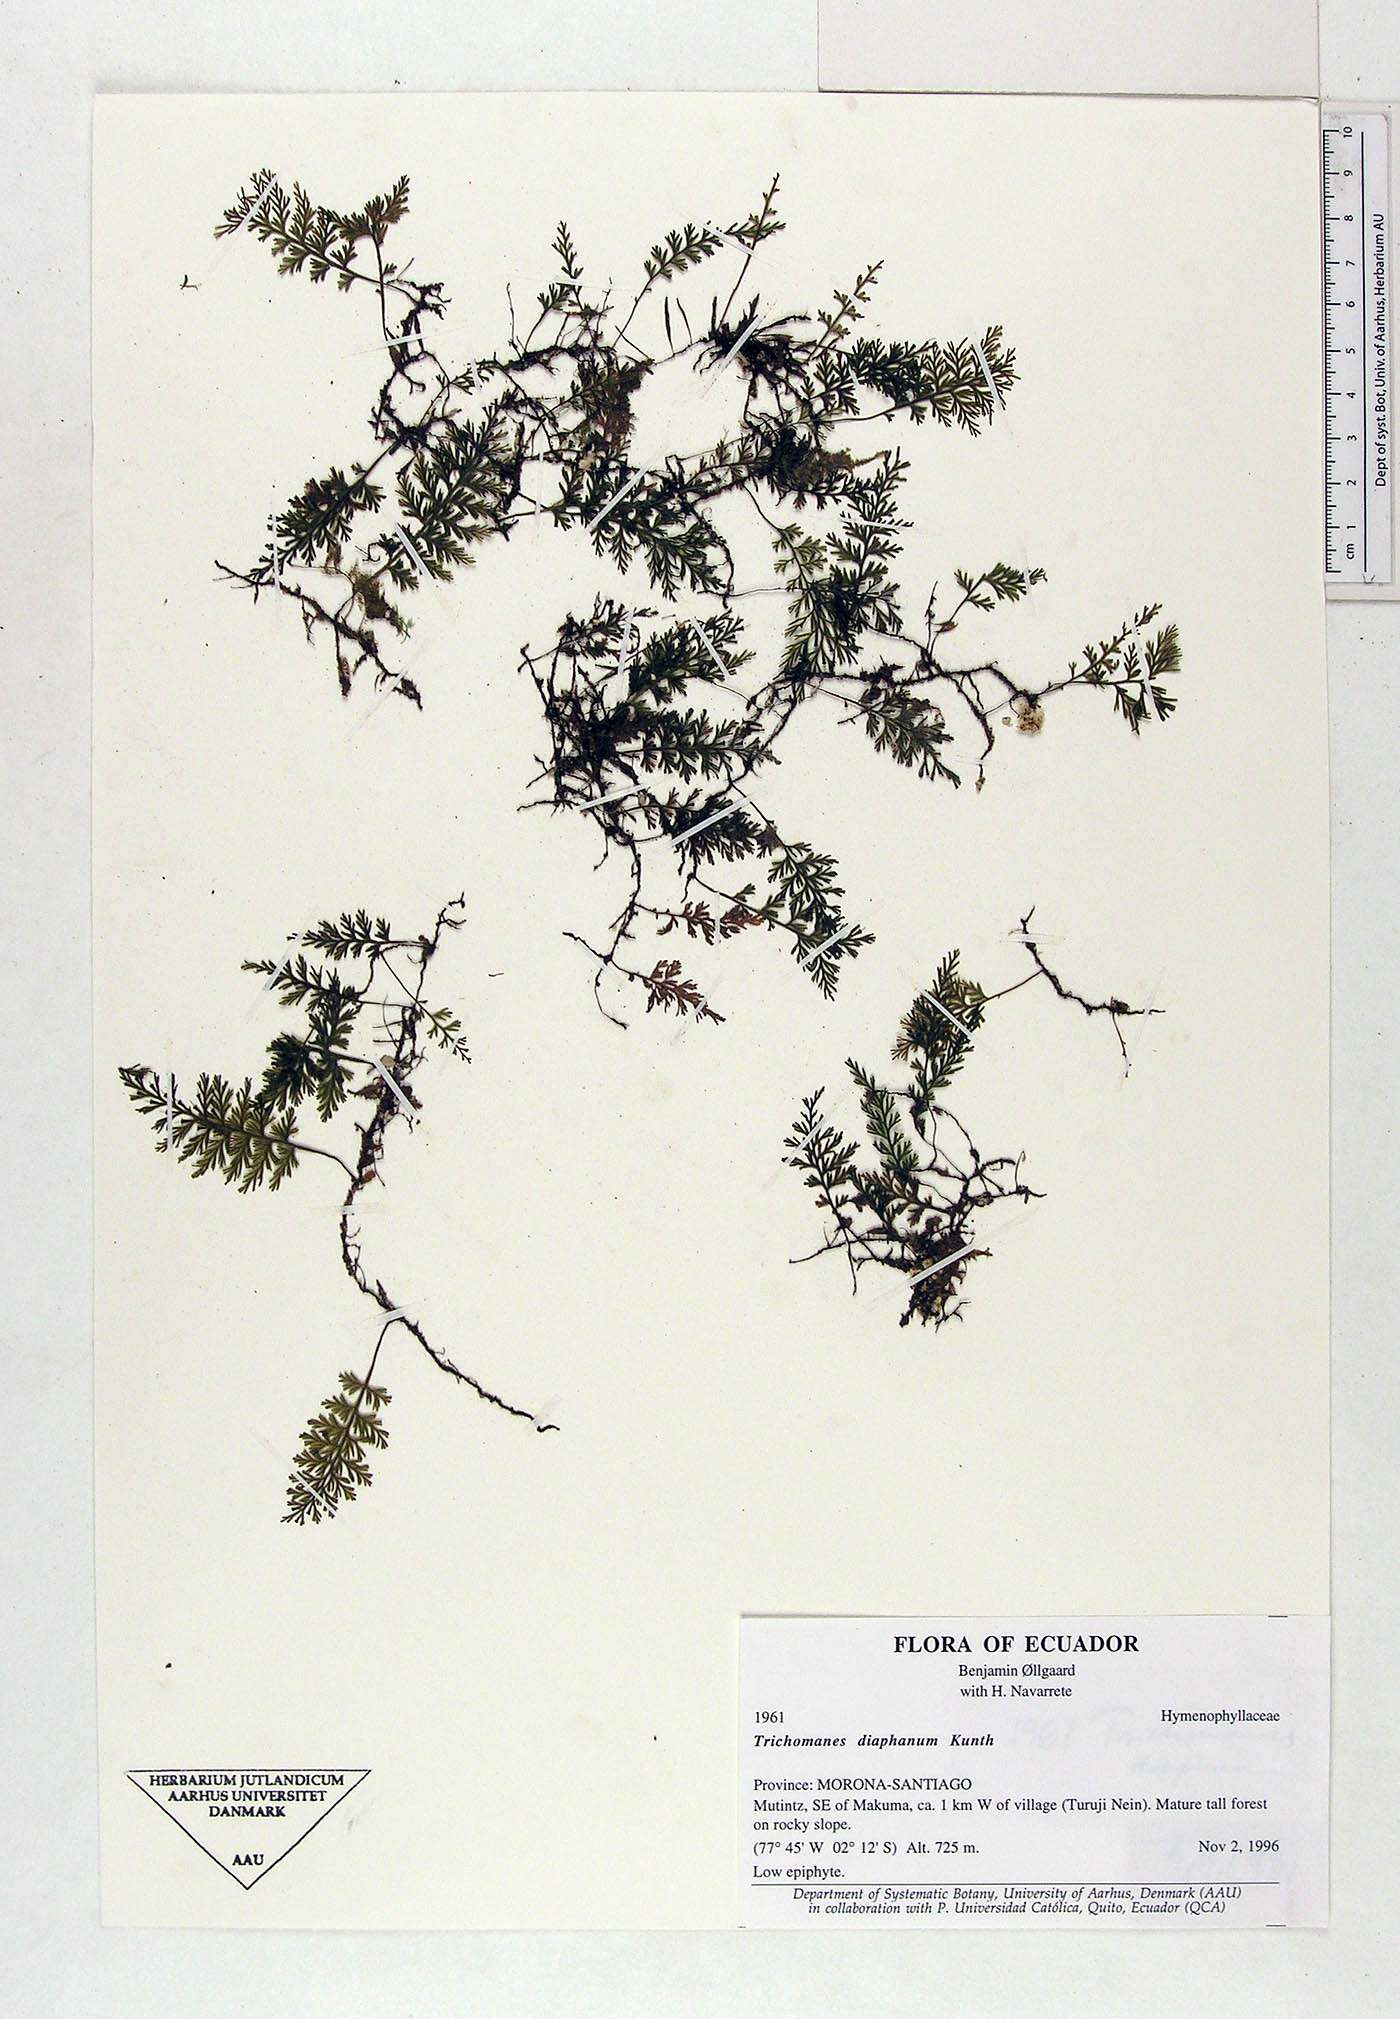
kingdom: Plantae
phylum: Tracheophyta
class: Polypodiopsida
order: Hymenophyllales
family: Hymenophyllaceae
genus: Polyphlebium
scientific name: Polyphlebium diaphanum
